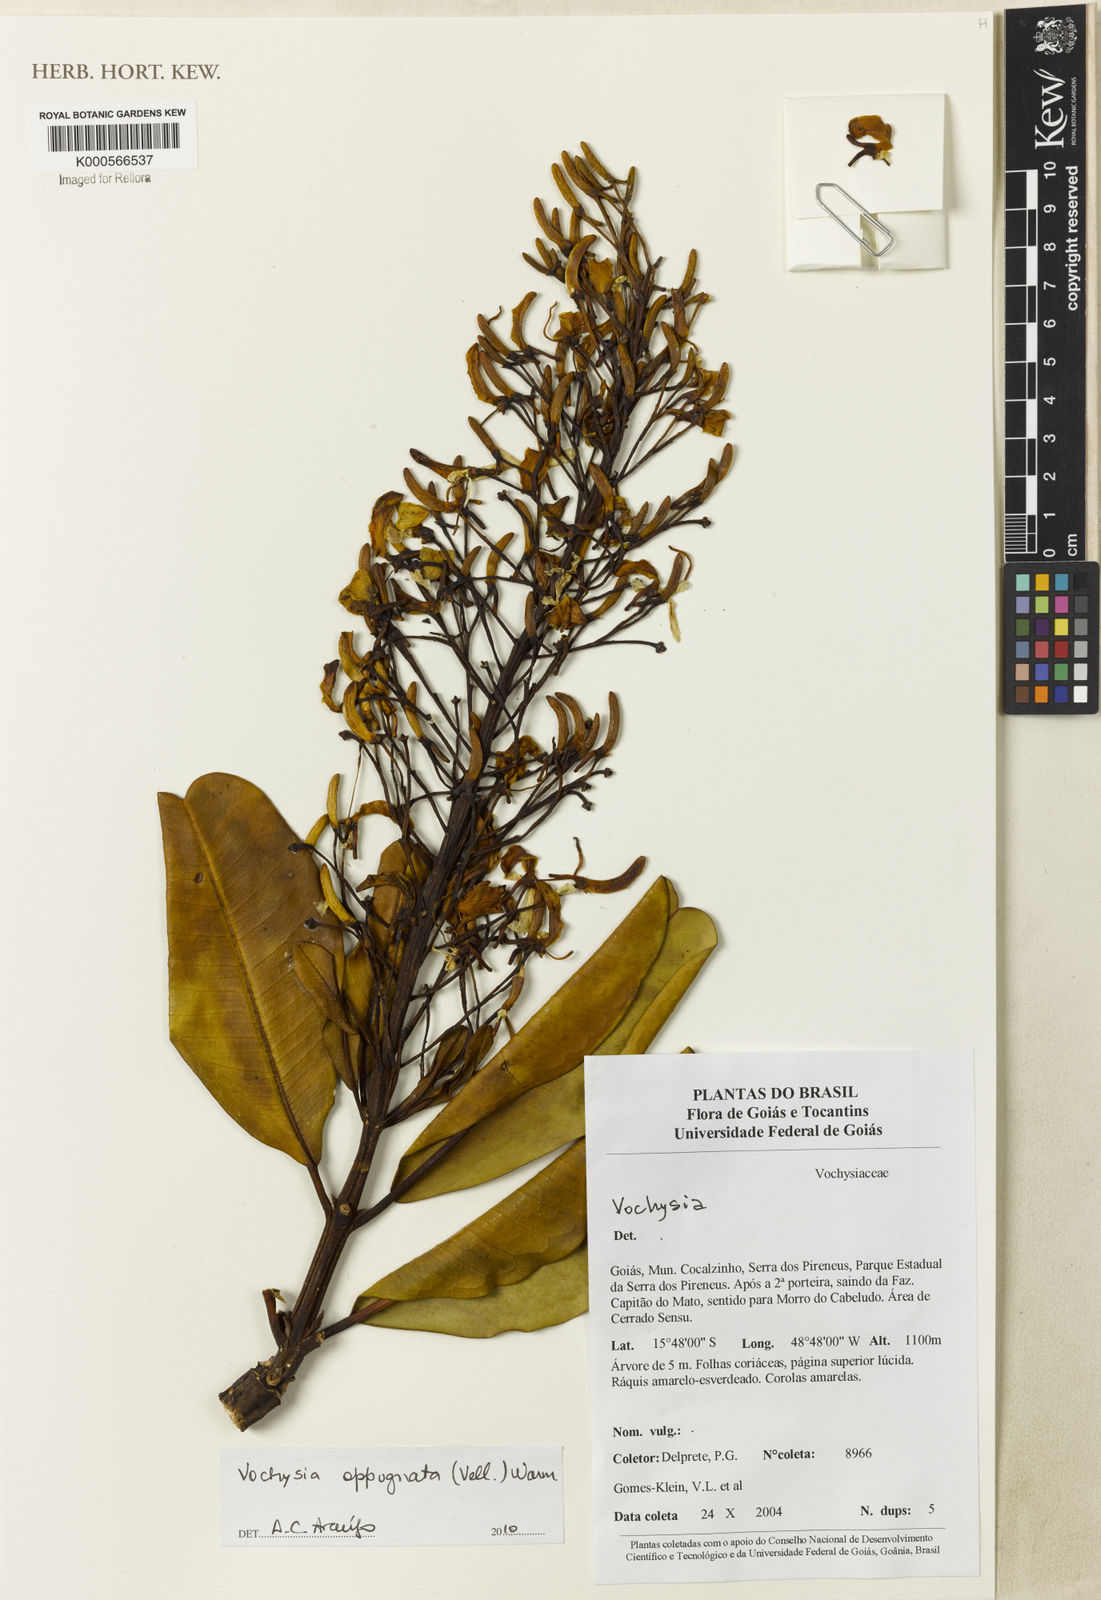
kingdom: Plantae
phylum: Tracheophyta
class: Magnoliopsida
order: Myrtales
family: Vochysiaceae
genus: Vochysia
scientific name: Vochysia oppugnata
